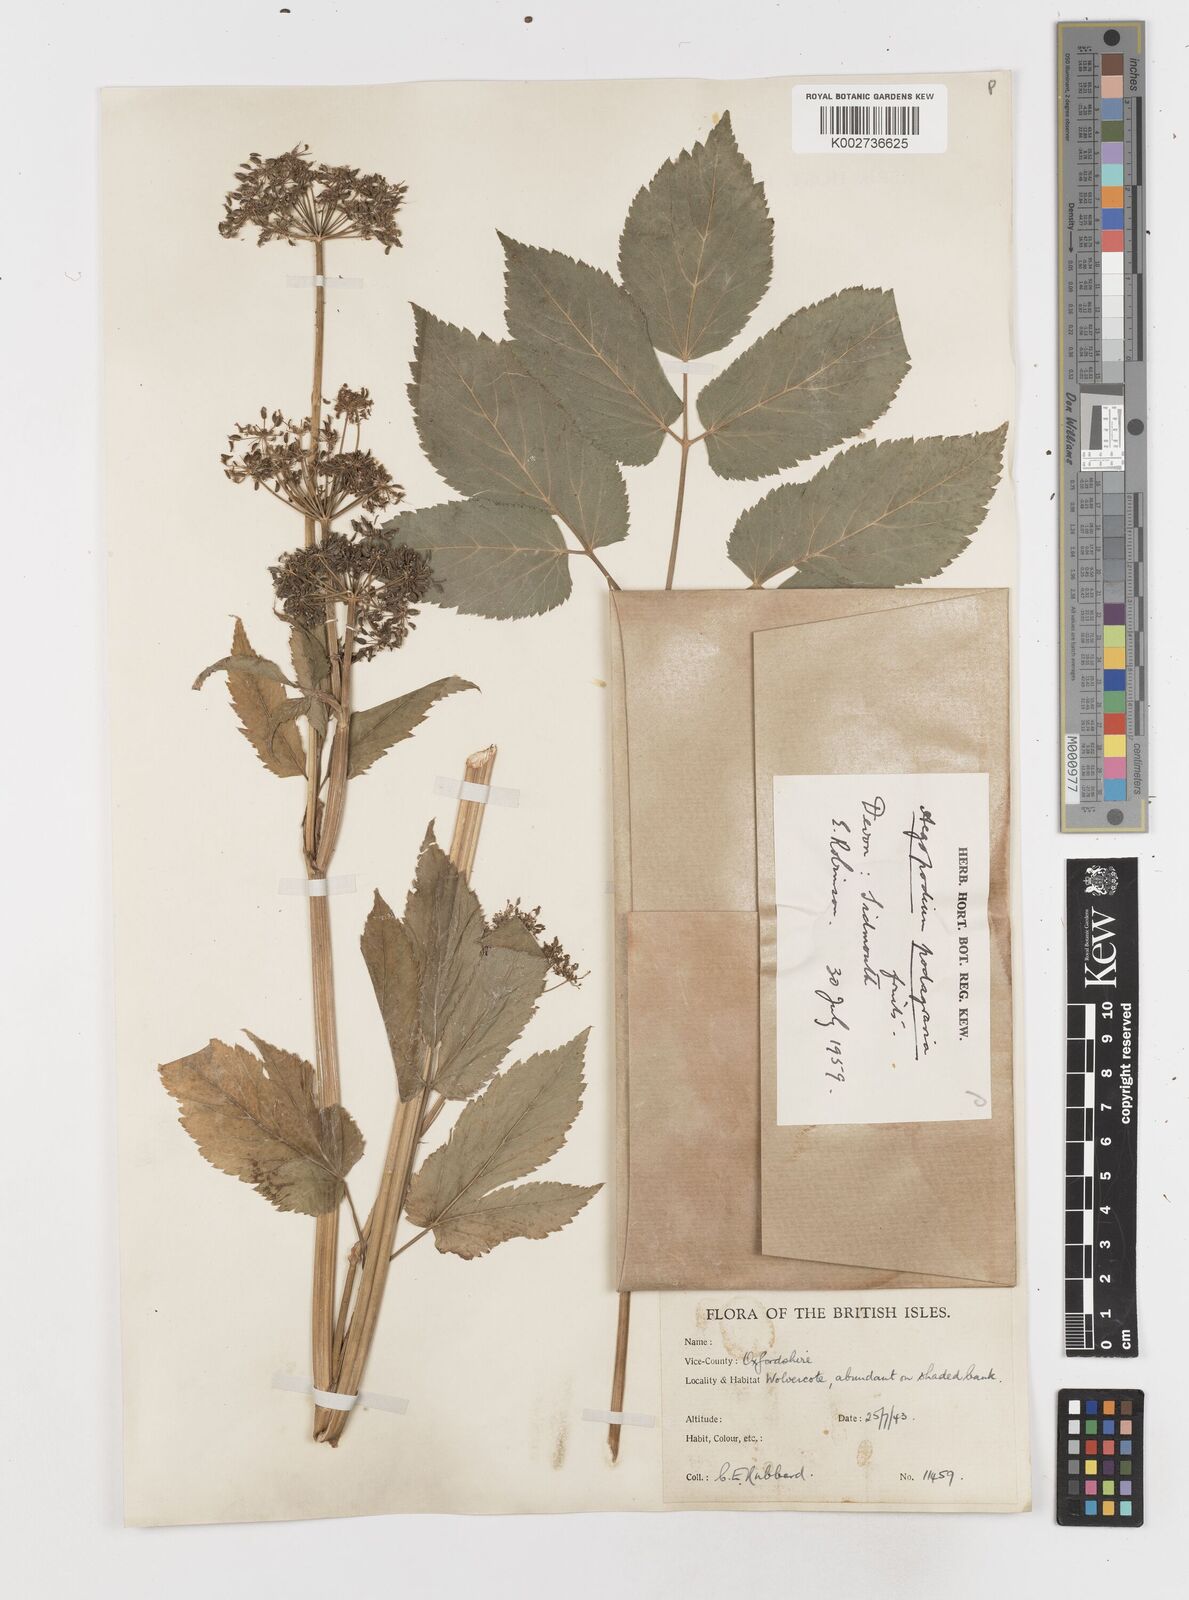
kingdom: Plantae
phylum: Tracheophyta
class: Magnoliopsida
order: Apiales
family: Apiaceae
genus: Aegopodium
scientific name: Aegopodium podagraria
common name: Ground-elder
